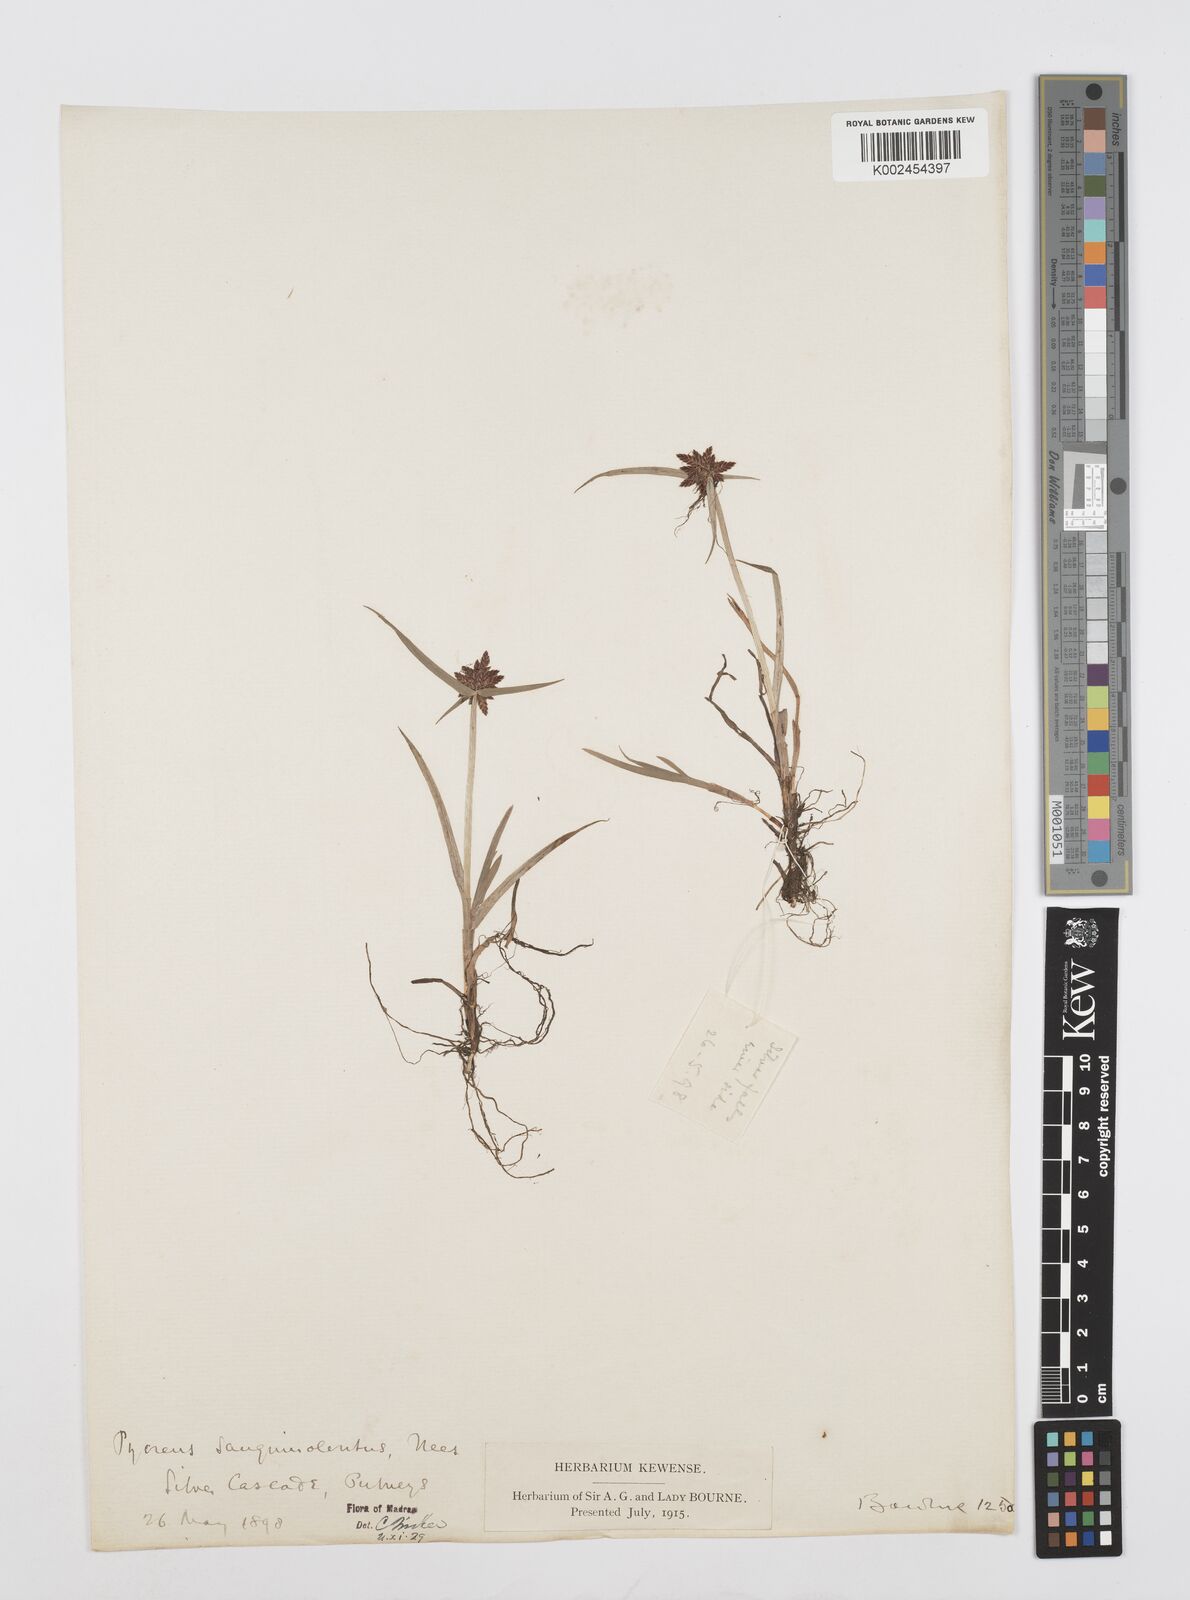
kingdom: Plantae
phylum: Tracheophyta
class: Liliopsida
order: Poales
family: Cyperaceae
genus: Cyperus
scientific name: Cyperus sanguinolentus
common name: Purpleglume flatsedge
